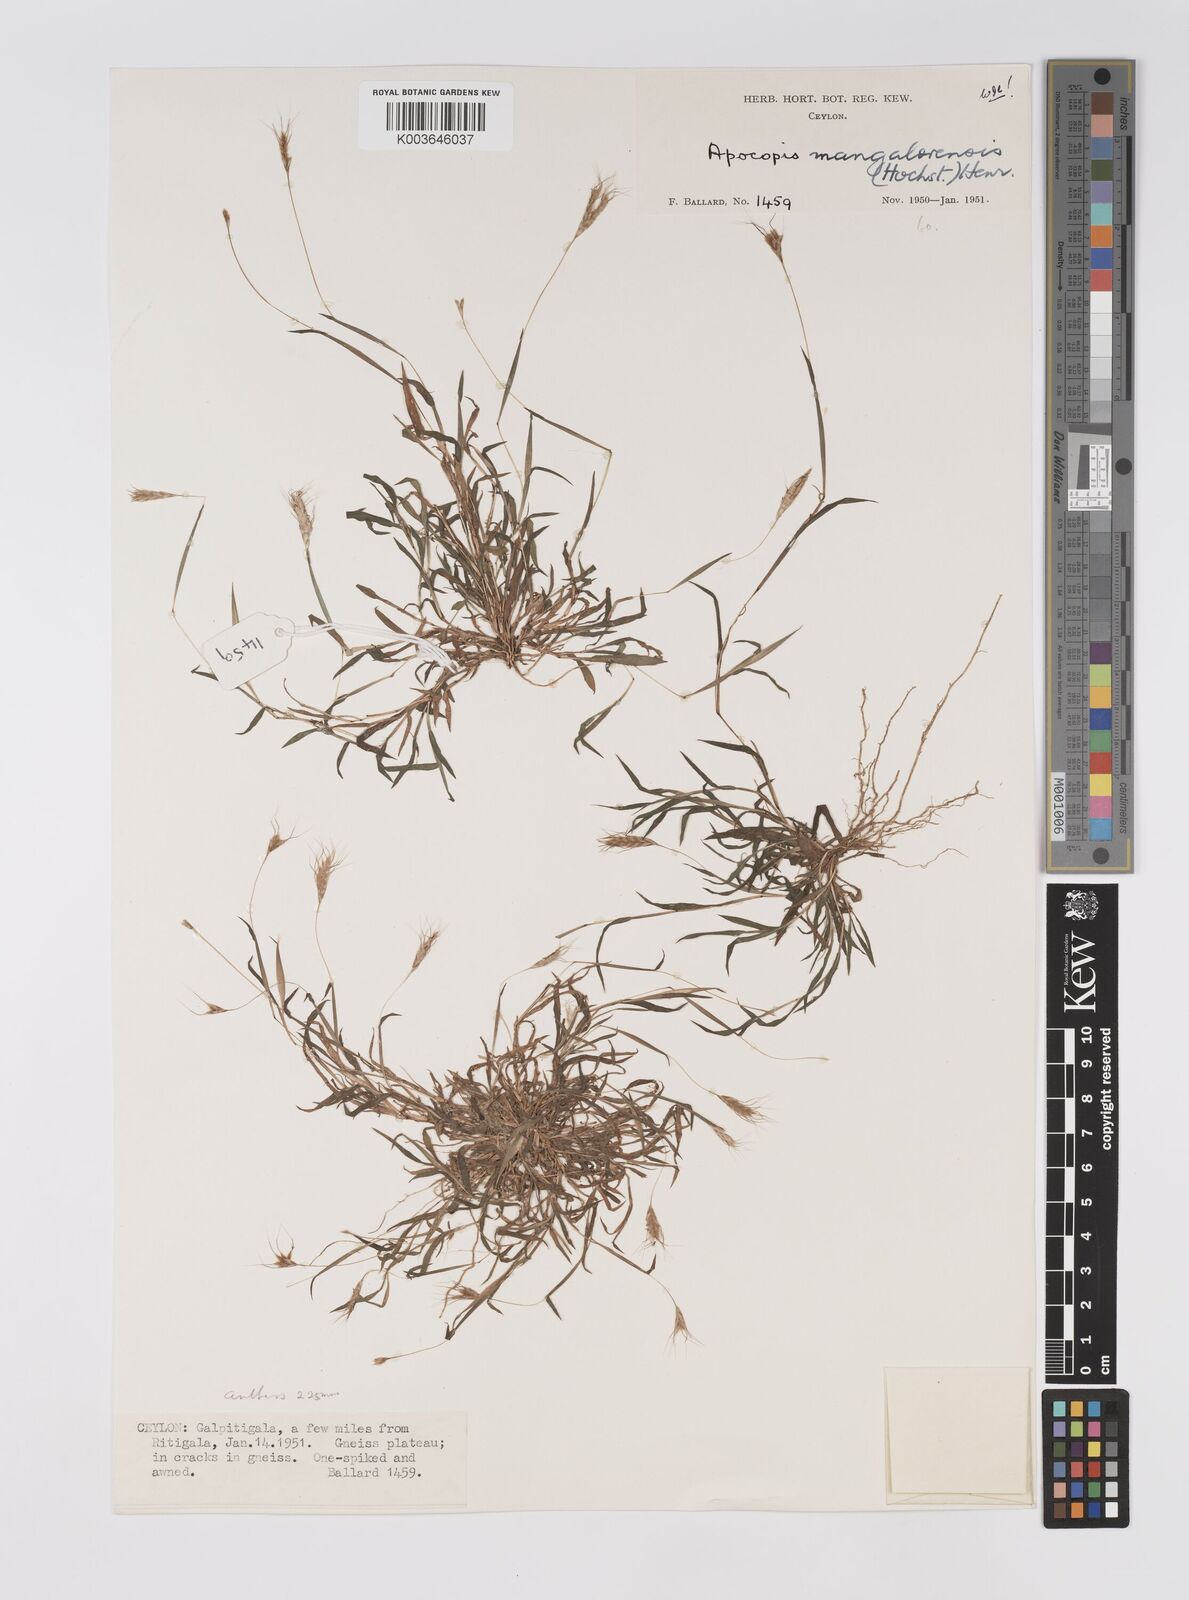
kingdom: Plantae
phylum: Tracheophyta
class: Liliopsida
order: Poales
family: Poaceae
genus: Apocopis
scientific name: Apocopis mangalorensis
